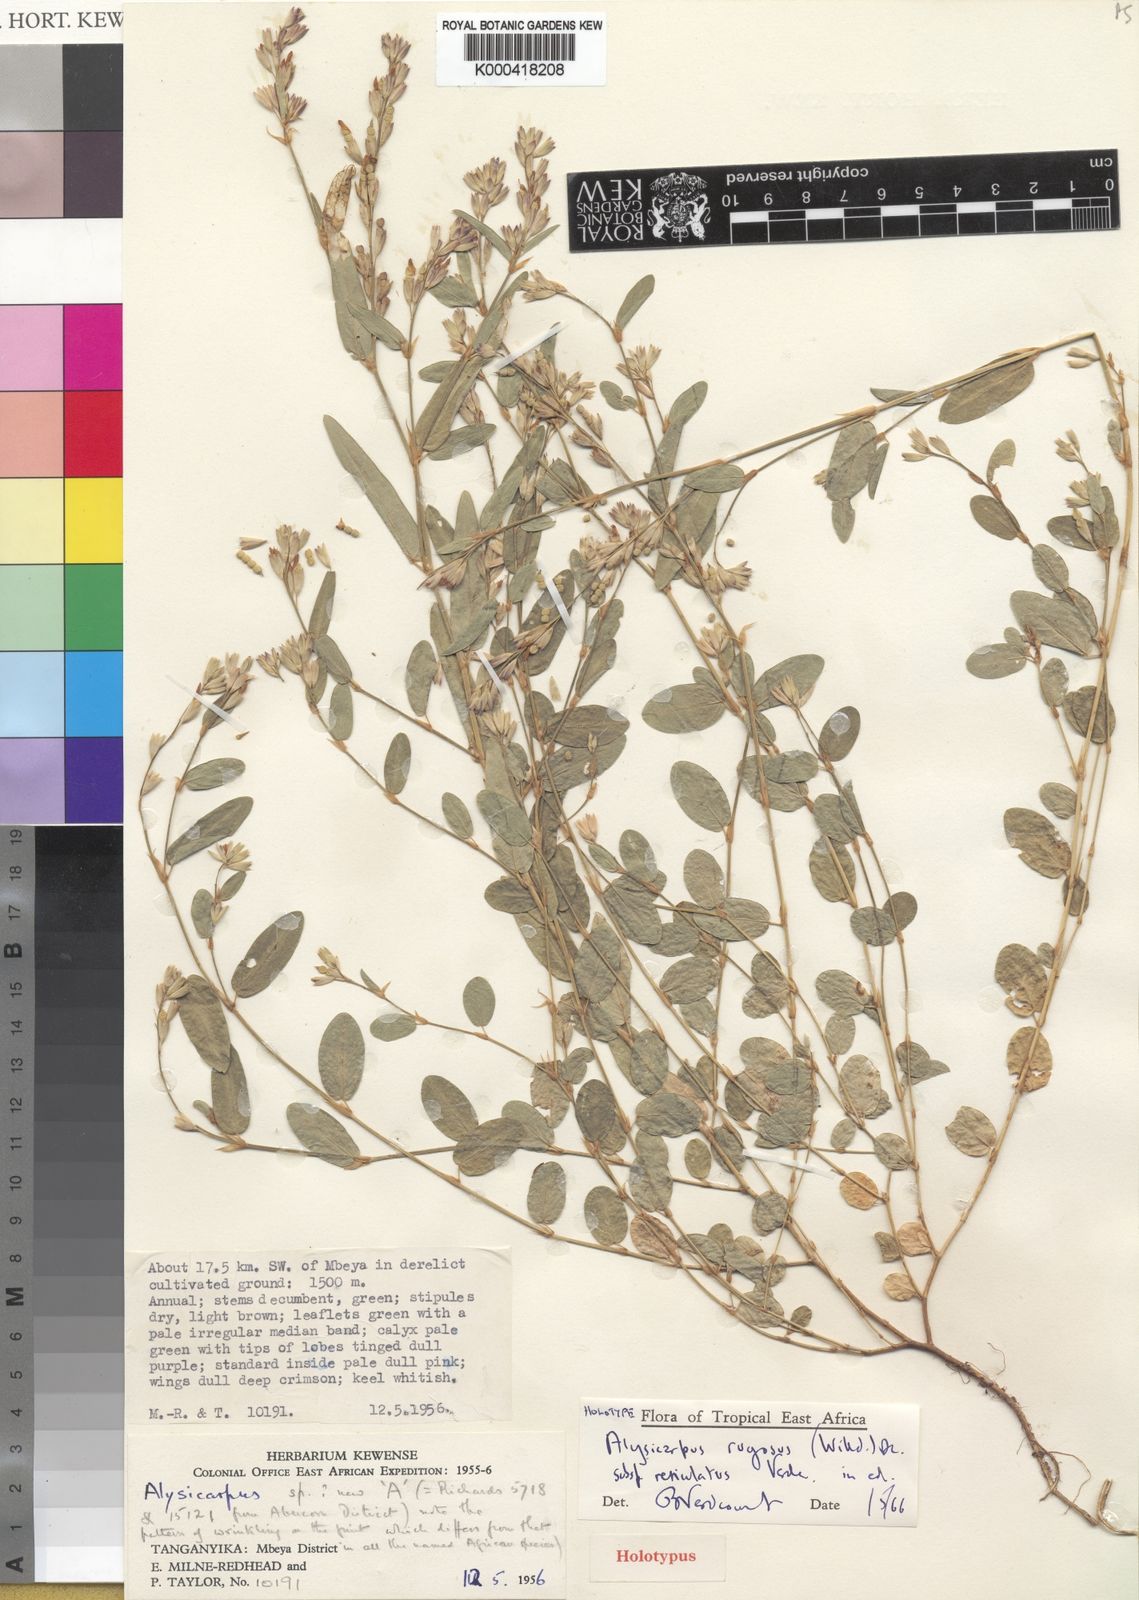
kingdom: Plantae
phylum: Tracheophyta
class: Magnoliopsida
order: Fabales
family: Fabaceae
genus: Alysicarpus
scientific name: Alysicarpus rugosus
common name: Red moneywort
